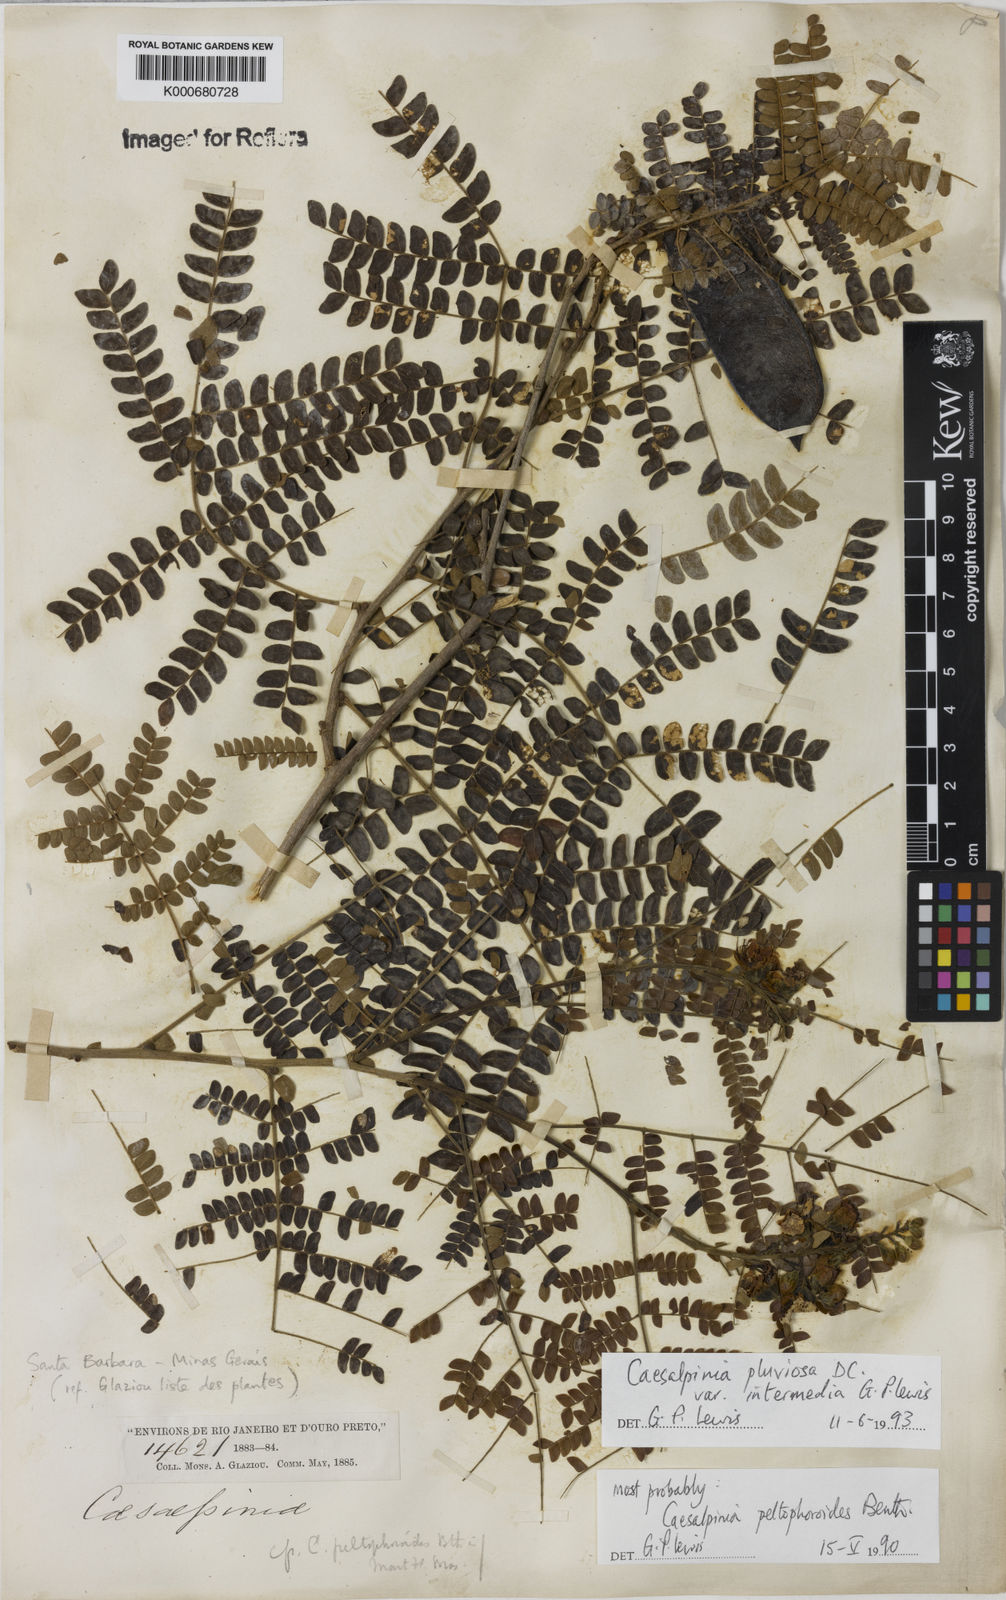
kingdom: Plantae
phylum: Tracheophyta
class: Magnoliopsida
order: Fabales
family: Fabaceae
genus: Cenostigma
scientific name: Cenostigma pluviosum
